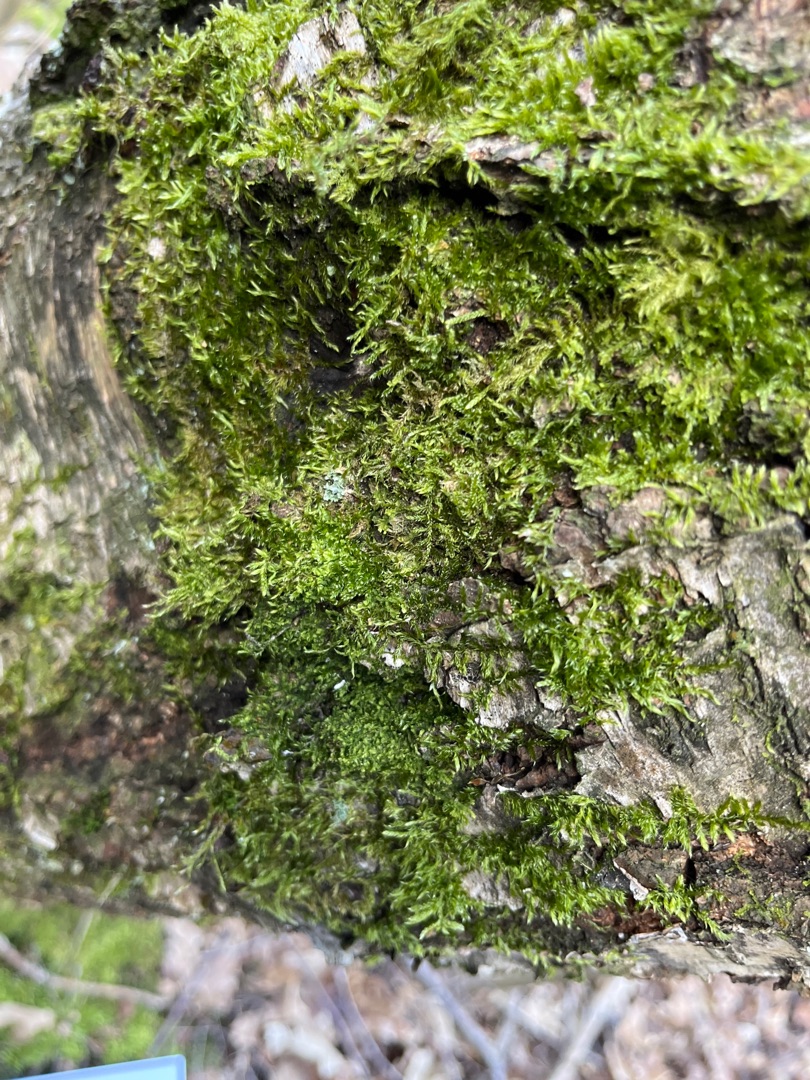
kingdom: Plantae
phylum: Bryophyta
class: Bryopsida
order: Hypnales
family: Hypnaceae
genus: Hypnum
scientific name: Hypnum
